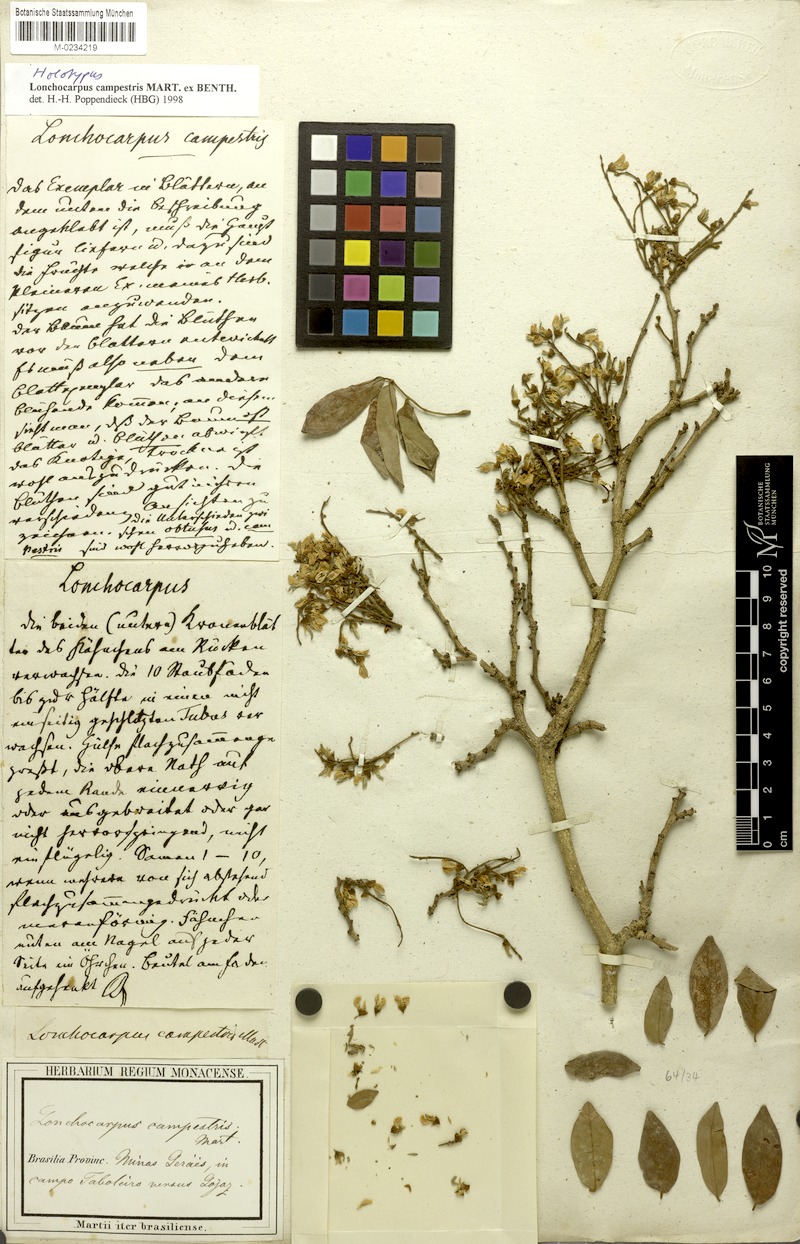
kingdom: Plantae
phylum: Tracheophyta
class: Magnoliopsida
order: Fabales
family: Fabaceae
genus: Muellera
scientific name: Muellera campestris
